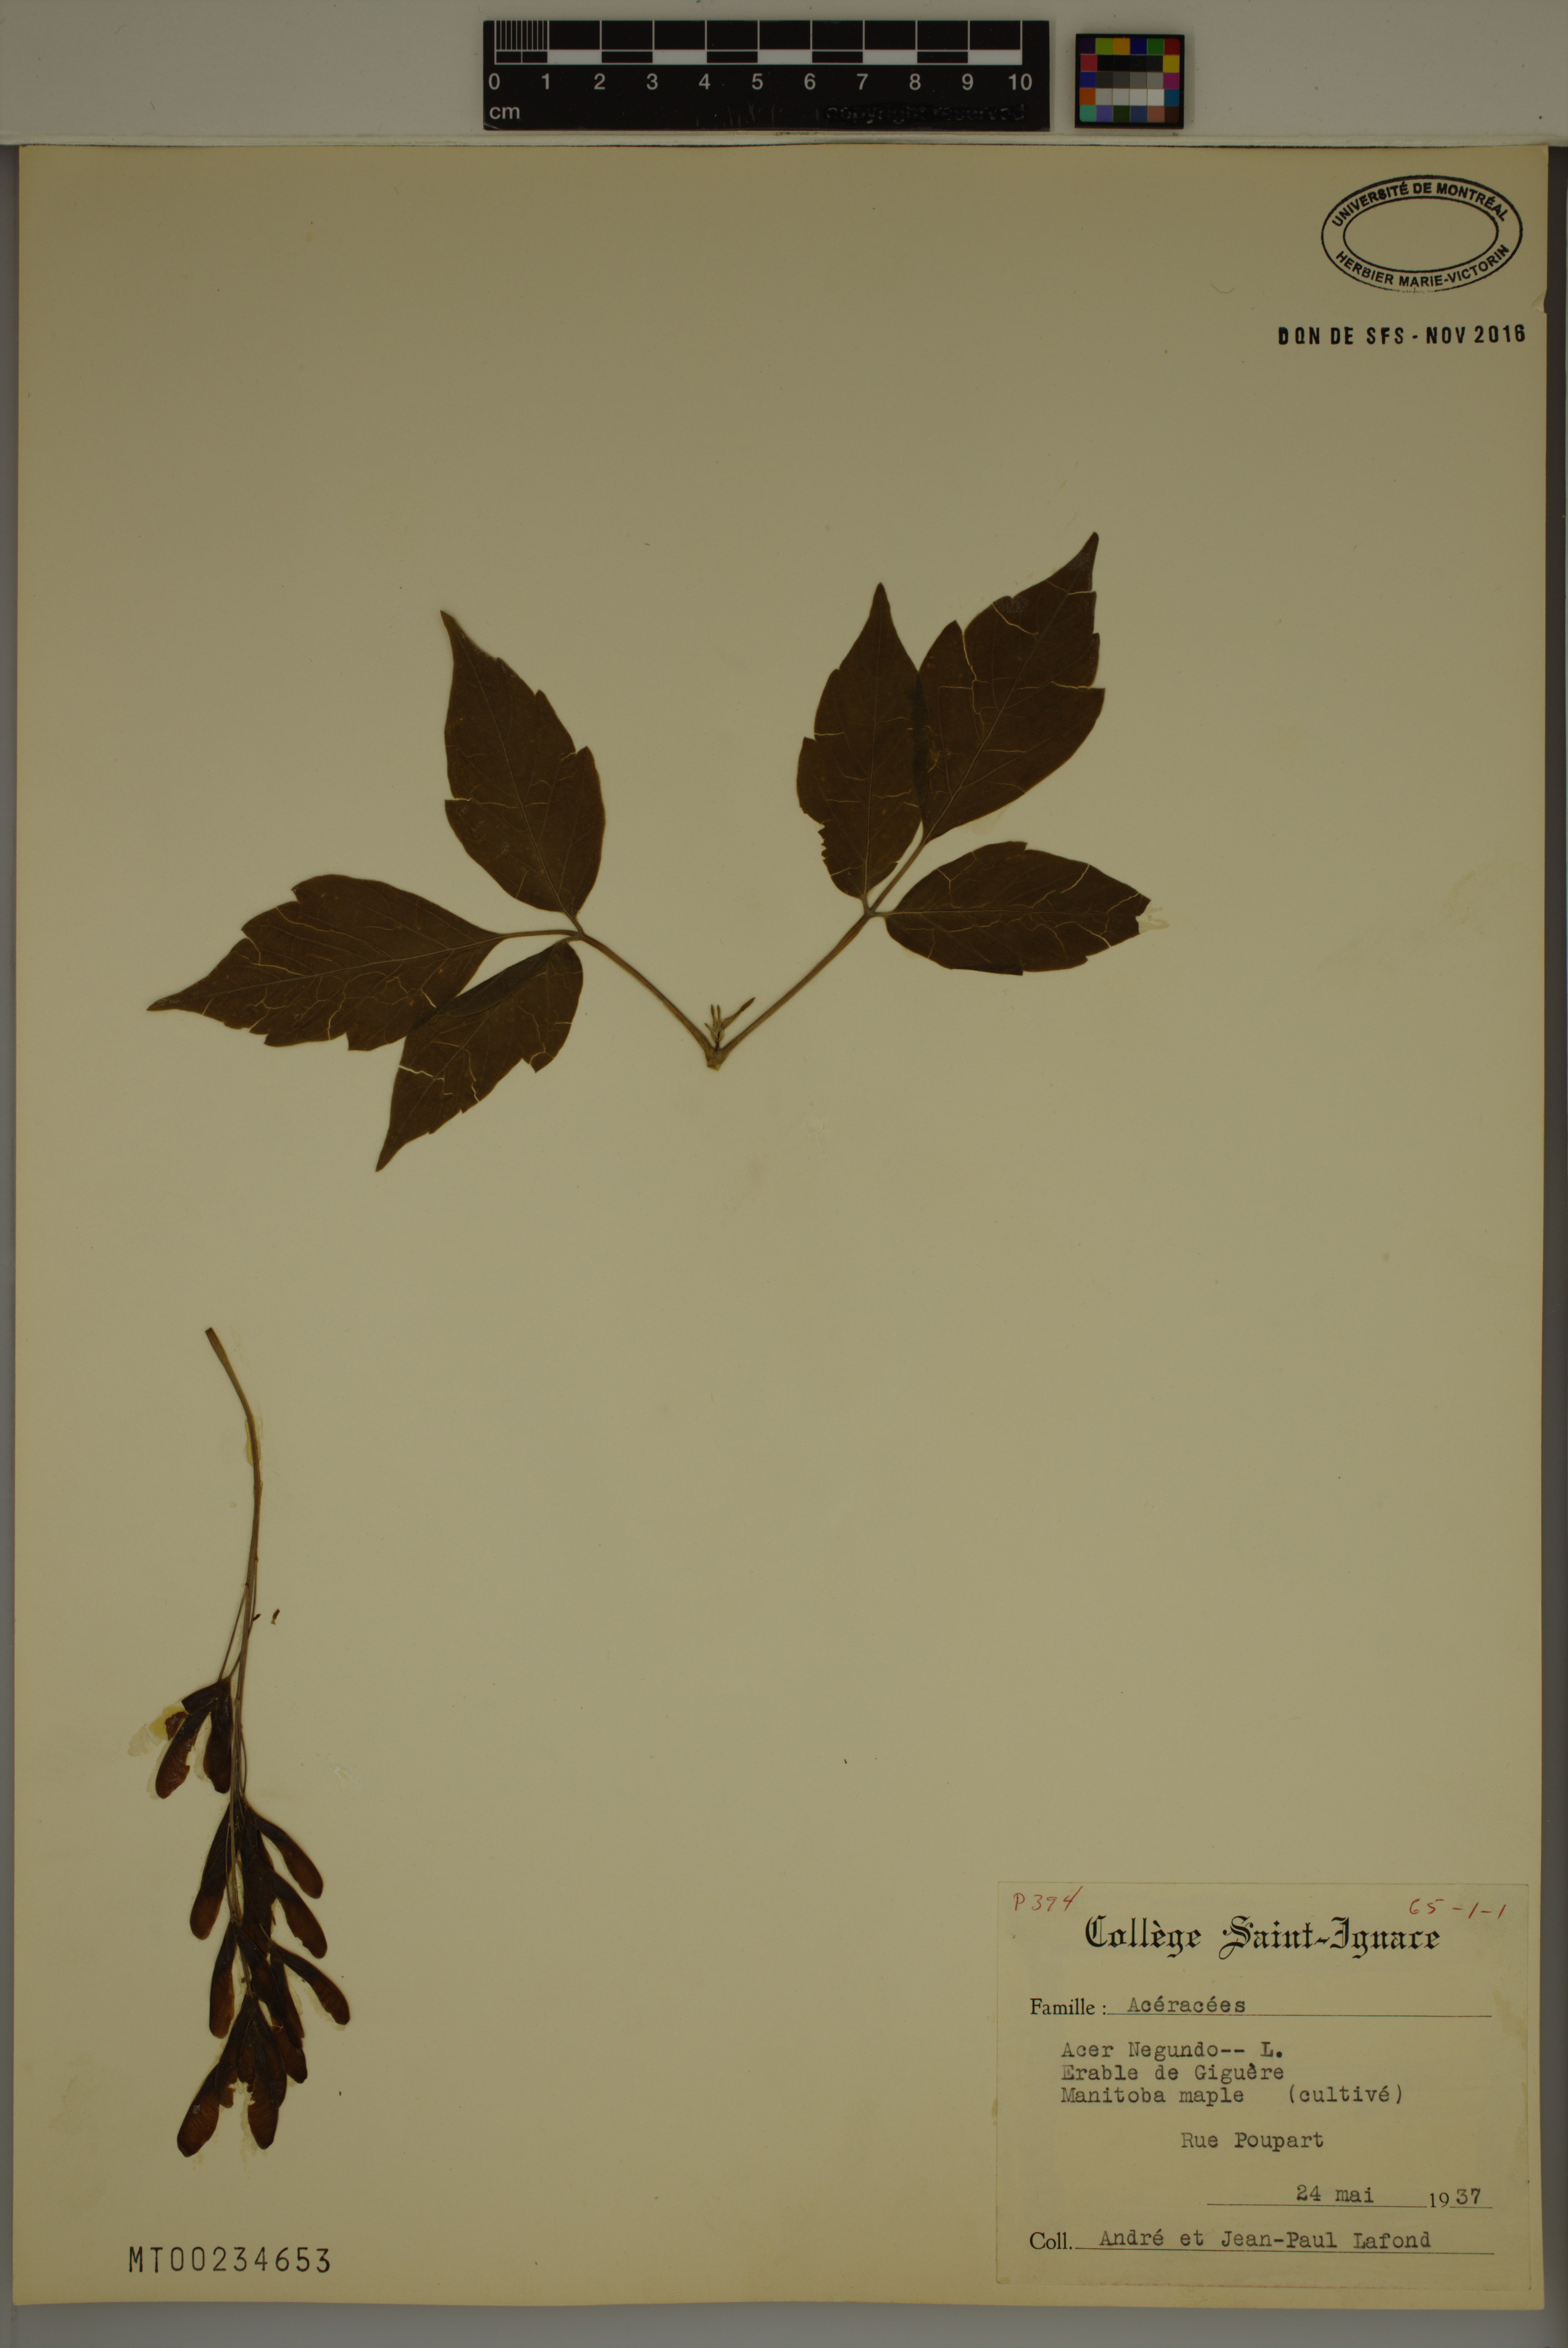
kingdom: Plantae
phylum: Tracheophyta
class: Magnoliopsida
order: Sapindales
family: Sapindaceae
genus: Acer
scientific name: Acer negundo
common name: Ashleaf maple
